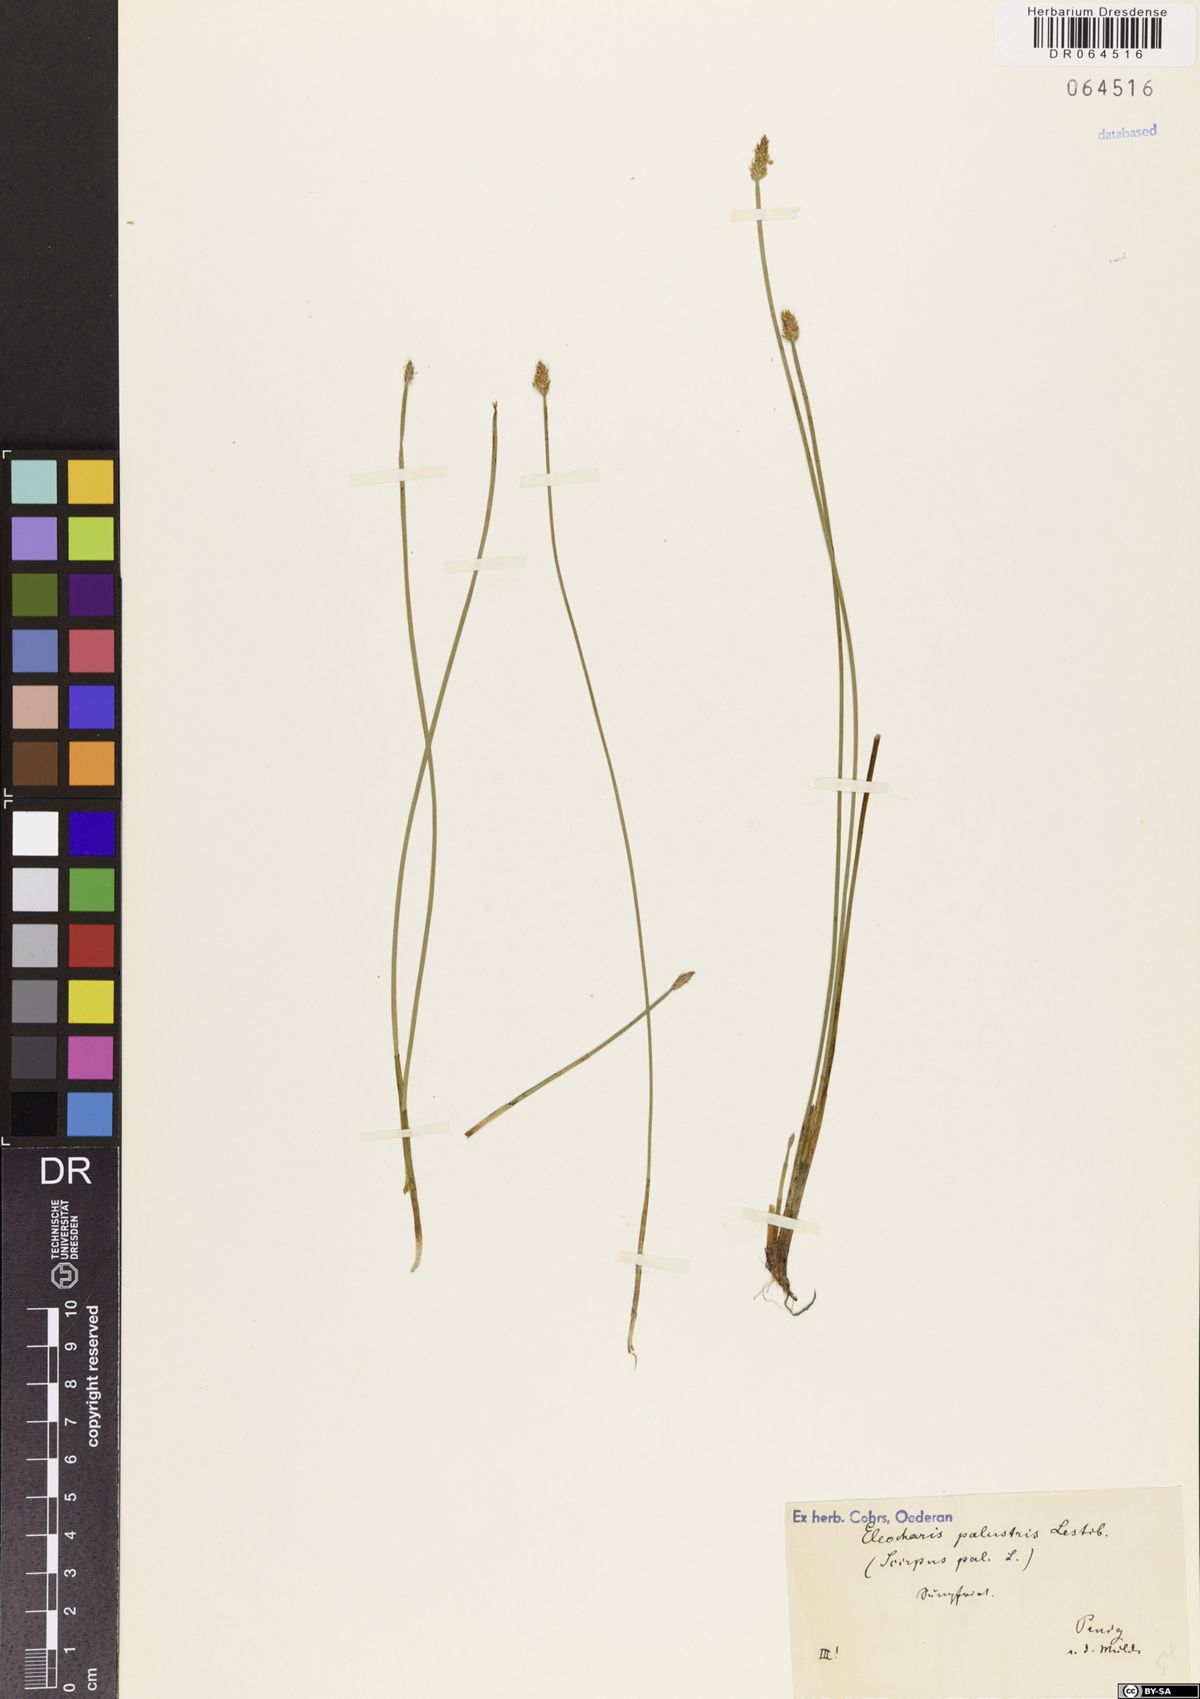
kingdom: Plantae
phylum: Tracheophyta
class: Liliopsida
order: Poales
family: Cyperaceae
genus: Eleocharis
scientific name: Eleocharis palustris
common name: Common spike-rush
